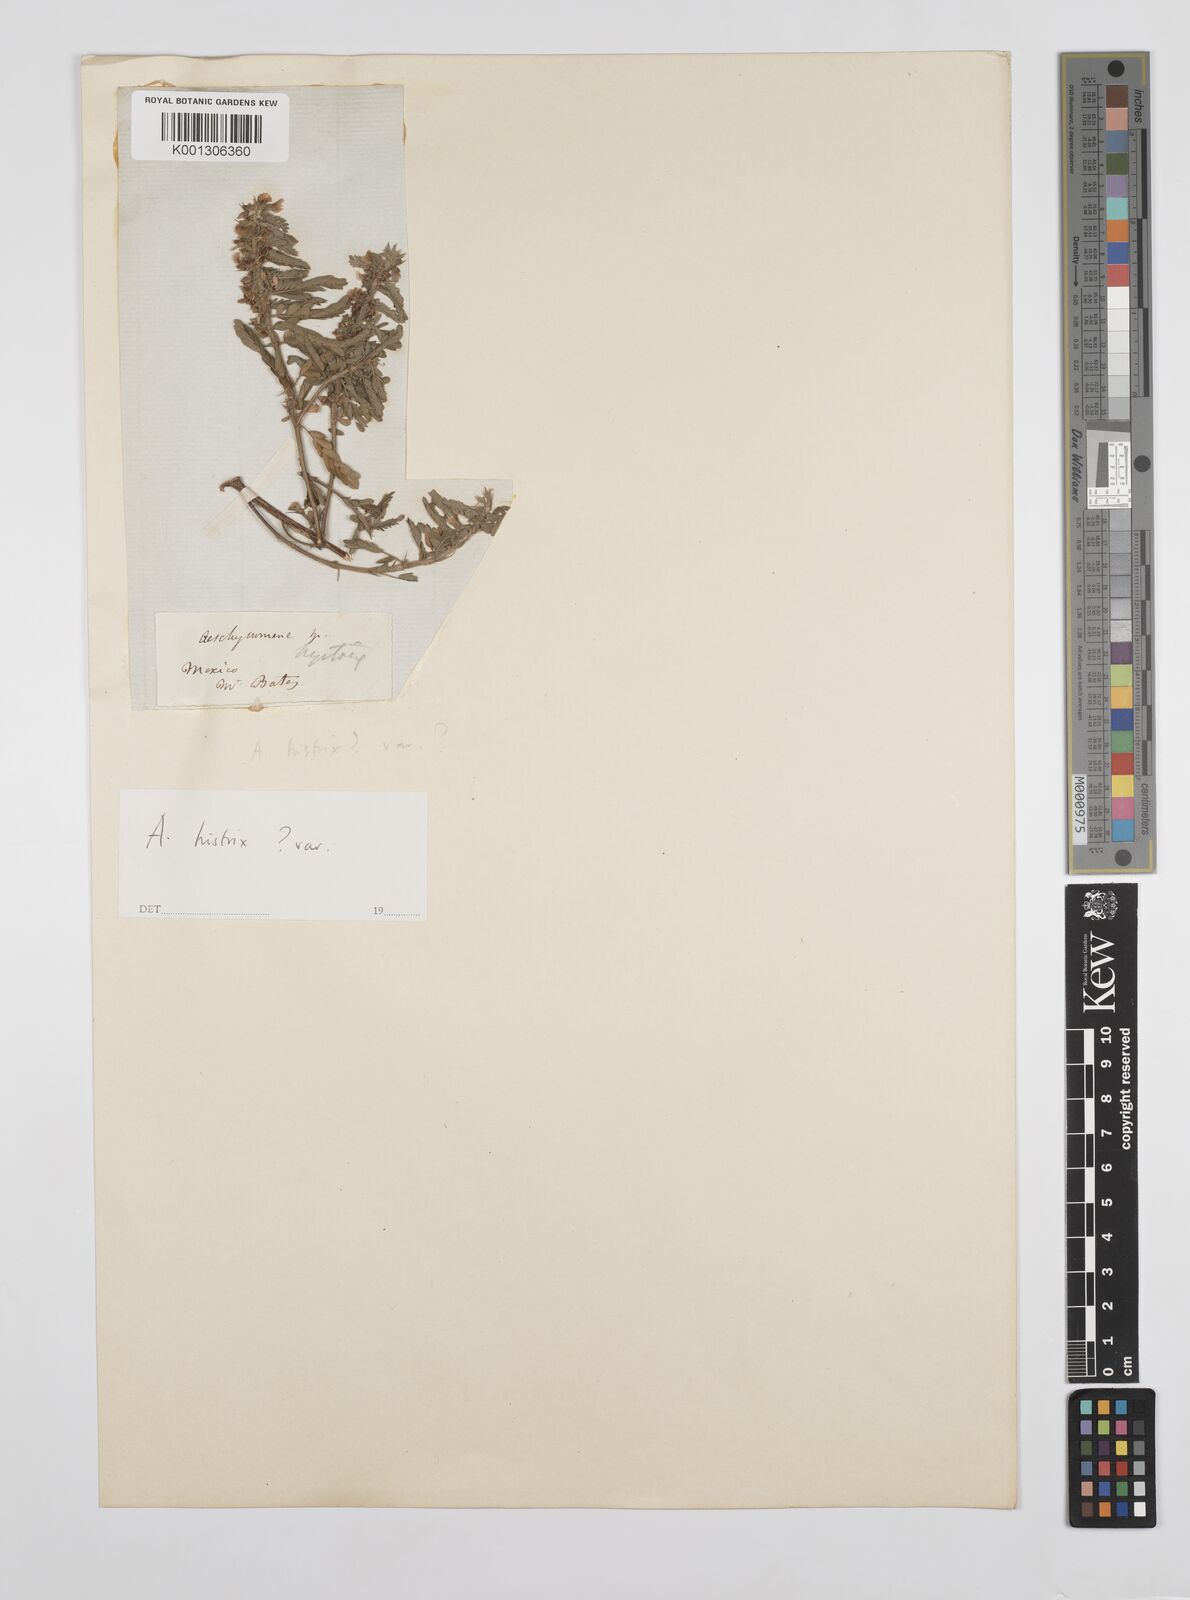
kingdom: Plantae
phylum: Tracheophyta
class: Magnoliopsida
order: Fabales
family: Fabaceae
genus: Ctenodon
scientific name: Ctenodon histrix
